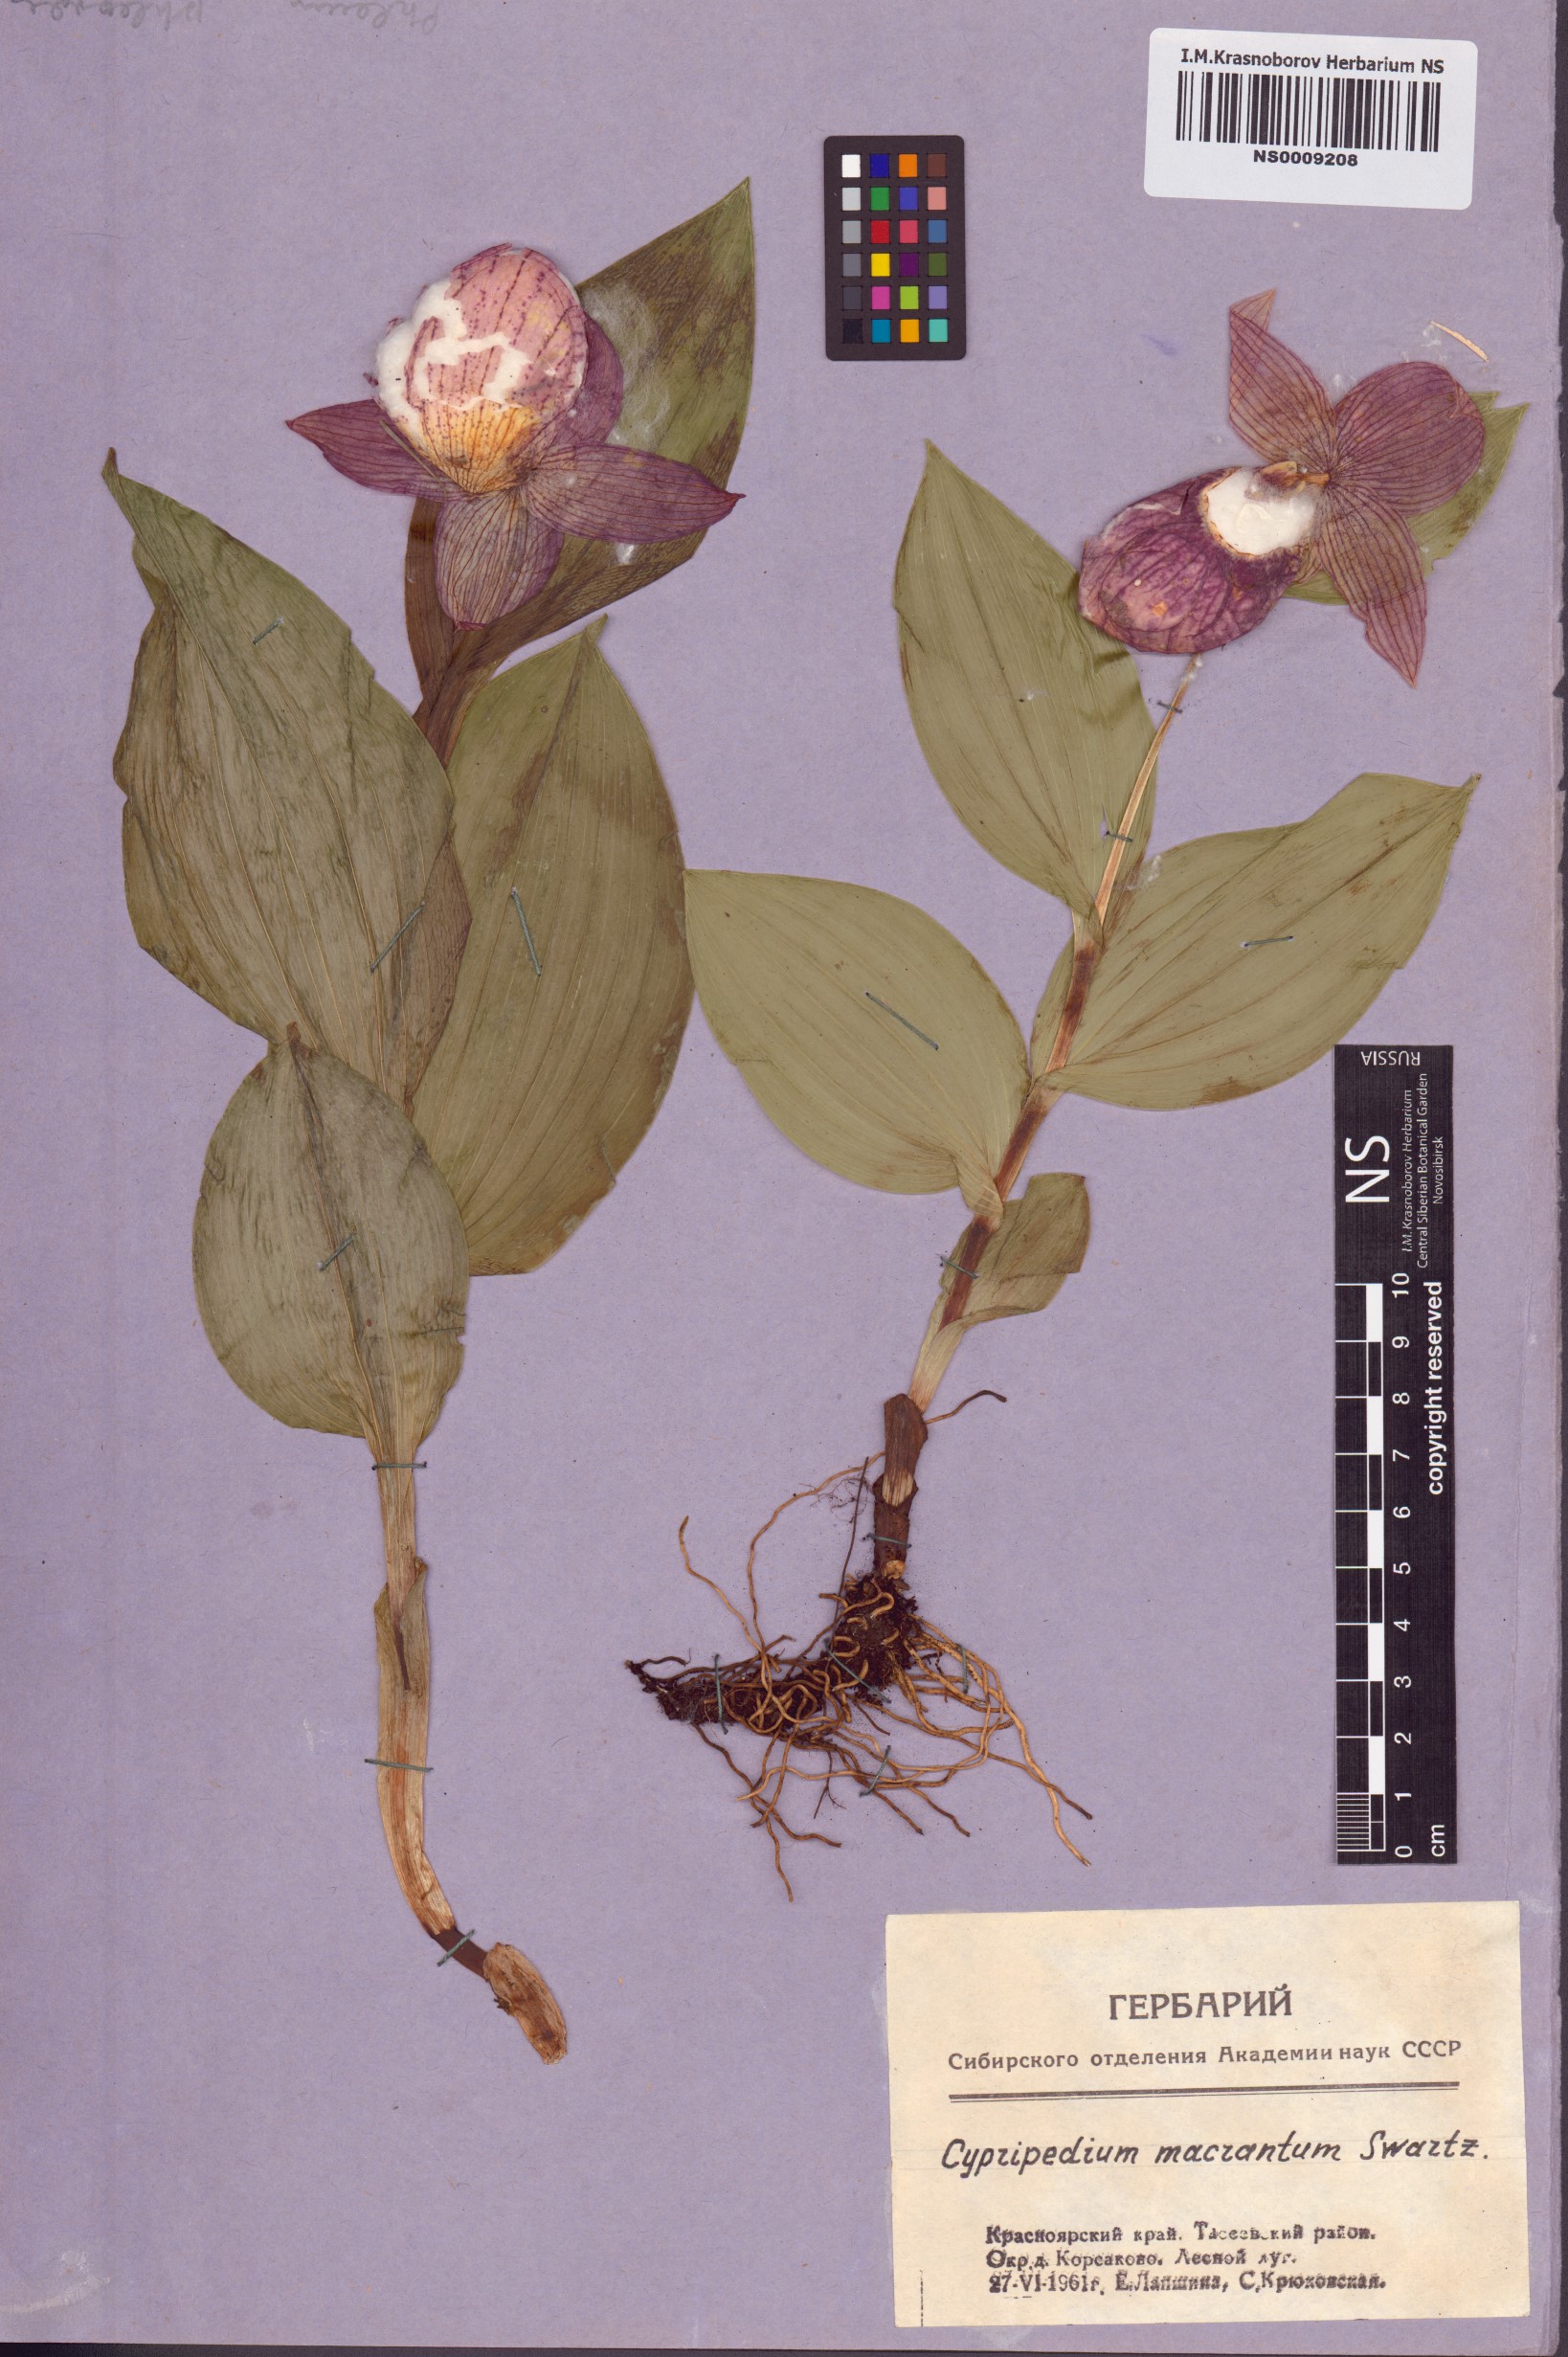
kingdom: Plantae
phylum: Tracheophyta
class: Liliopsida
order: Asparagales
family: Orchidaceae
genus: Cypripedium
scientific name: Cypripedium macranthos
